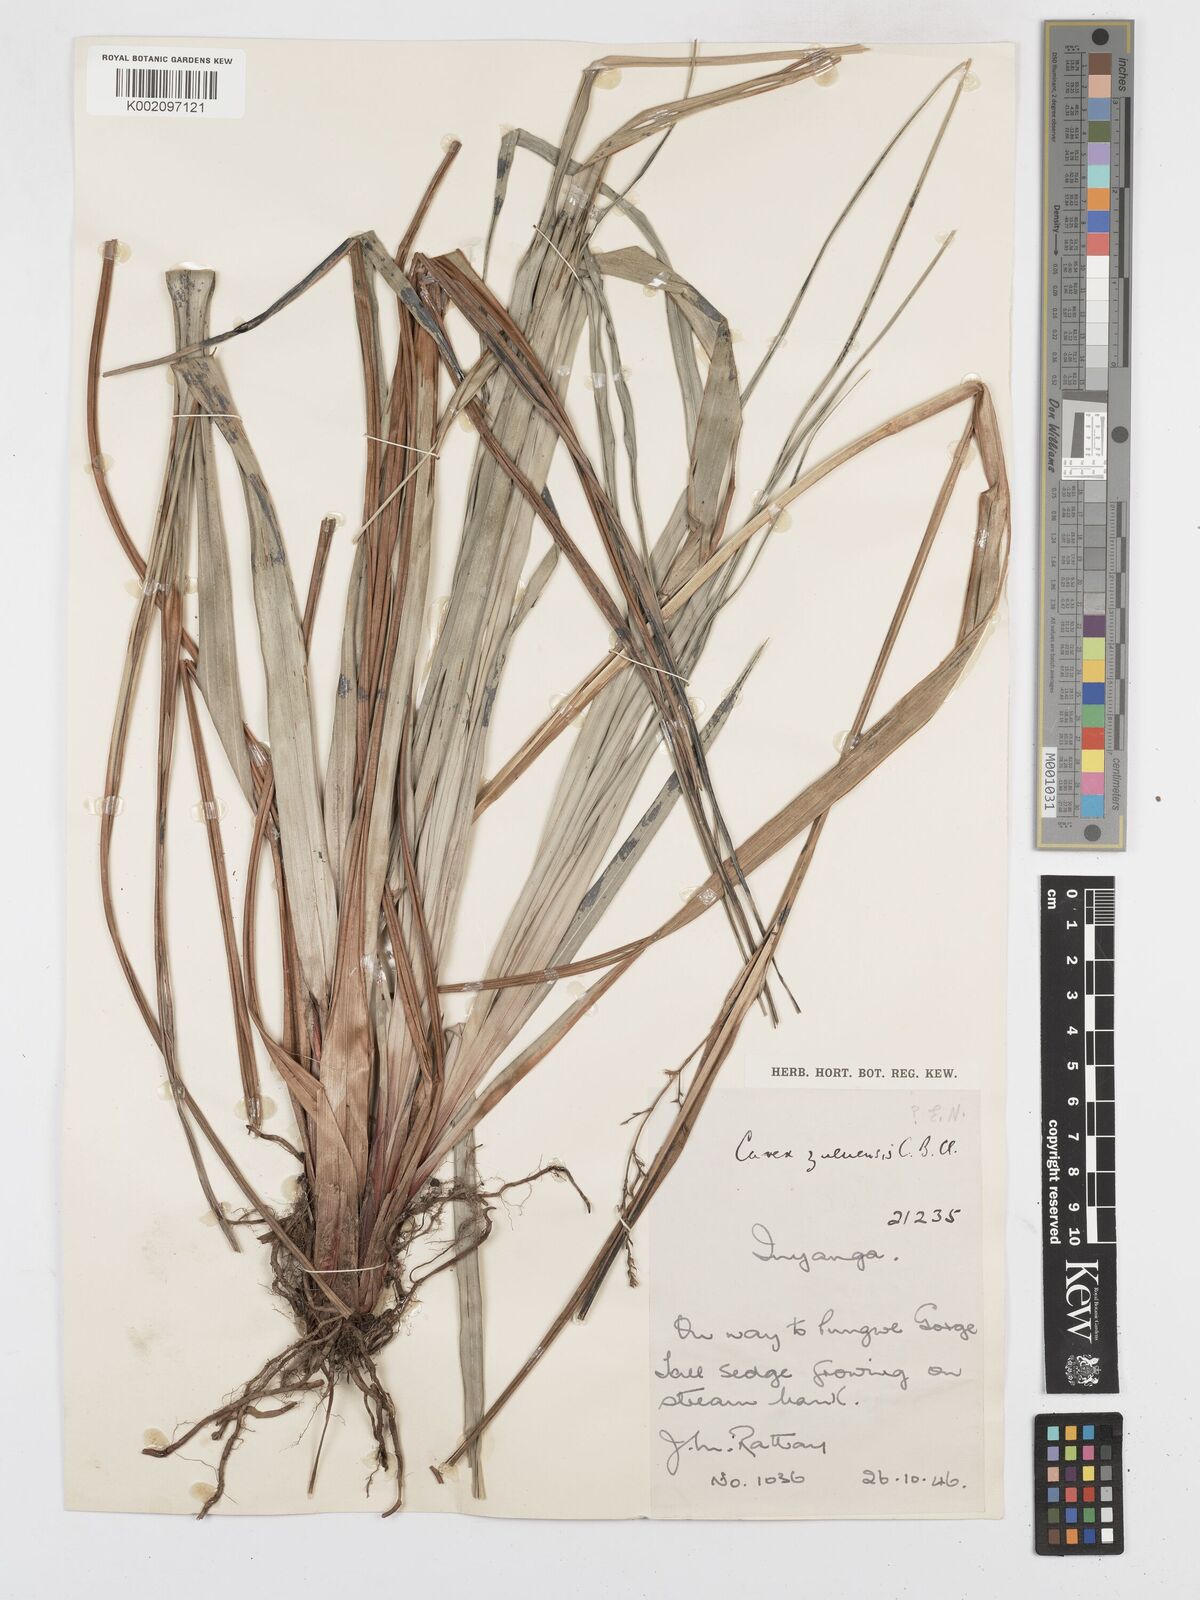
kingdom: Plantae
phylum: Tracheophyta
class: Liliopsida
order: Poales
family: Cyperaceae
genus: Carex
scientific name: Carex steudneri
